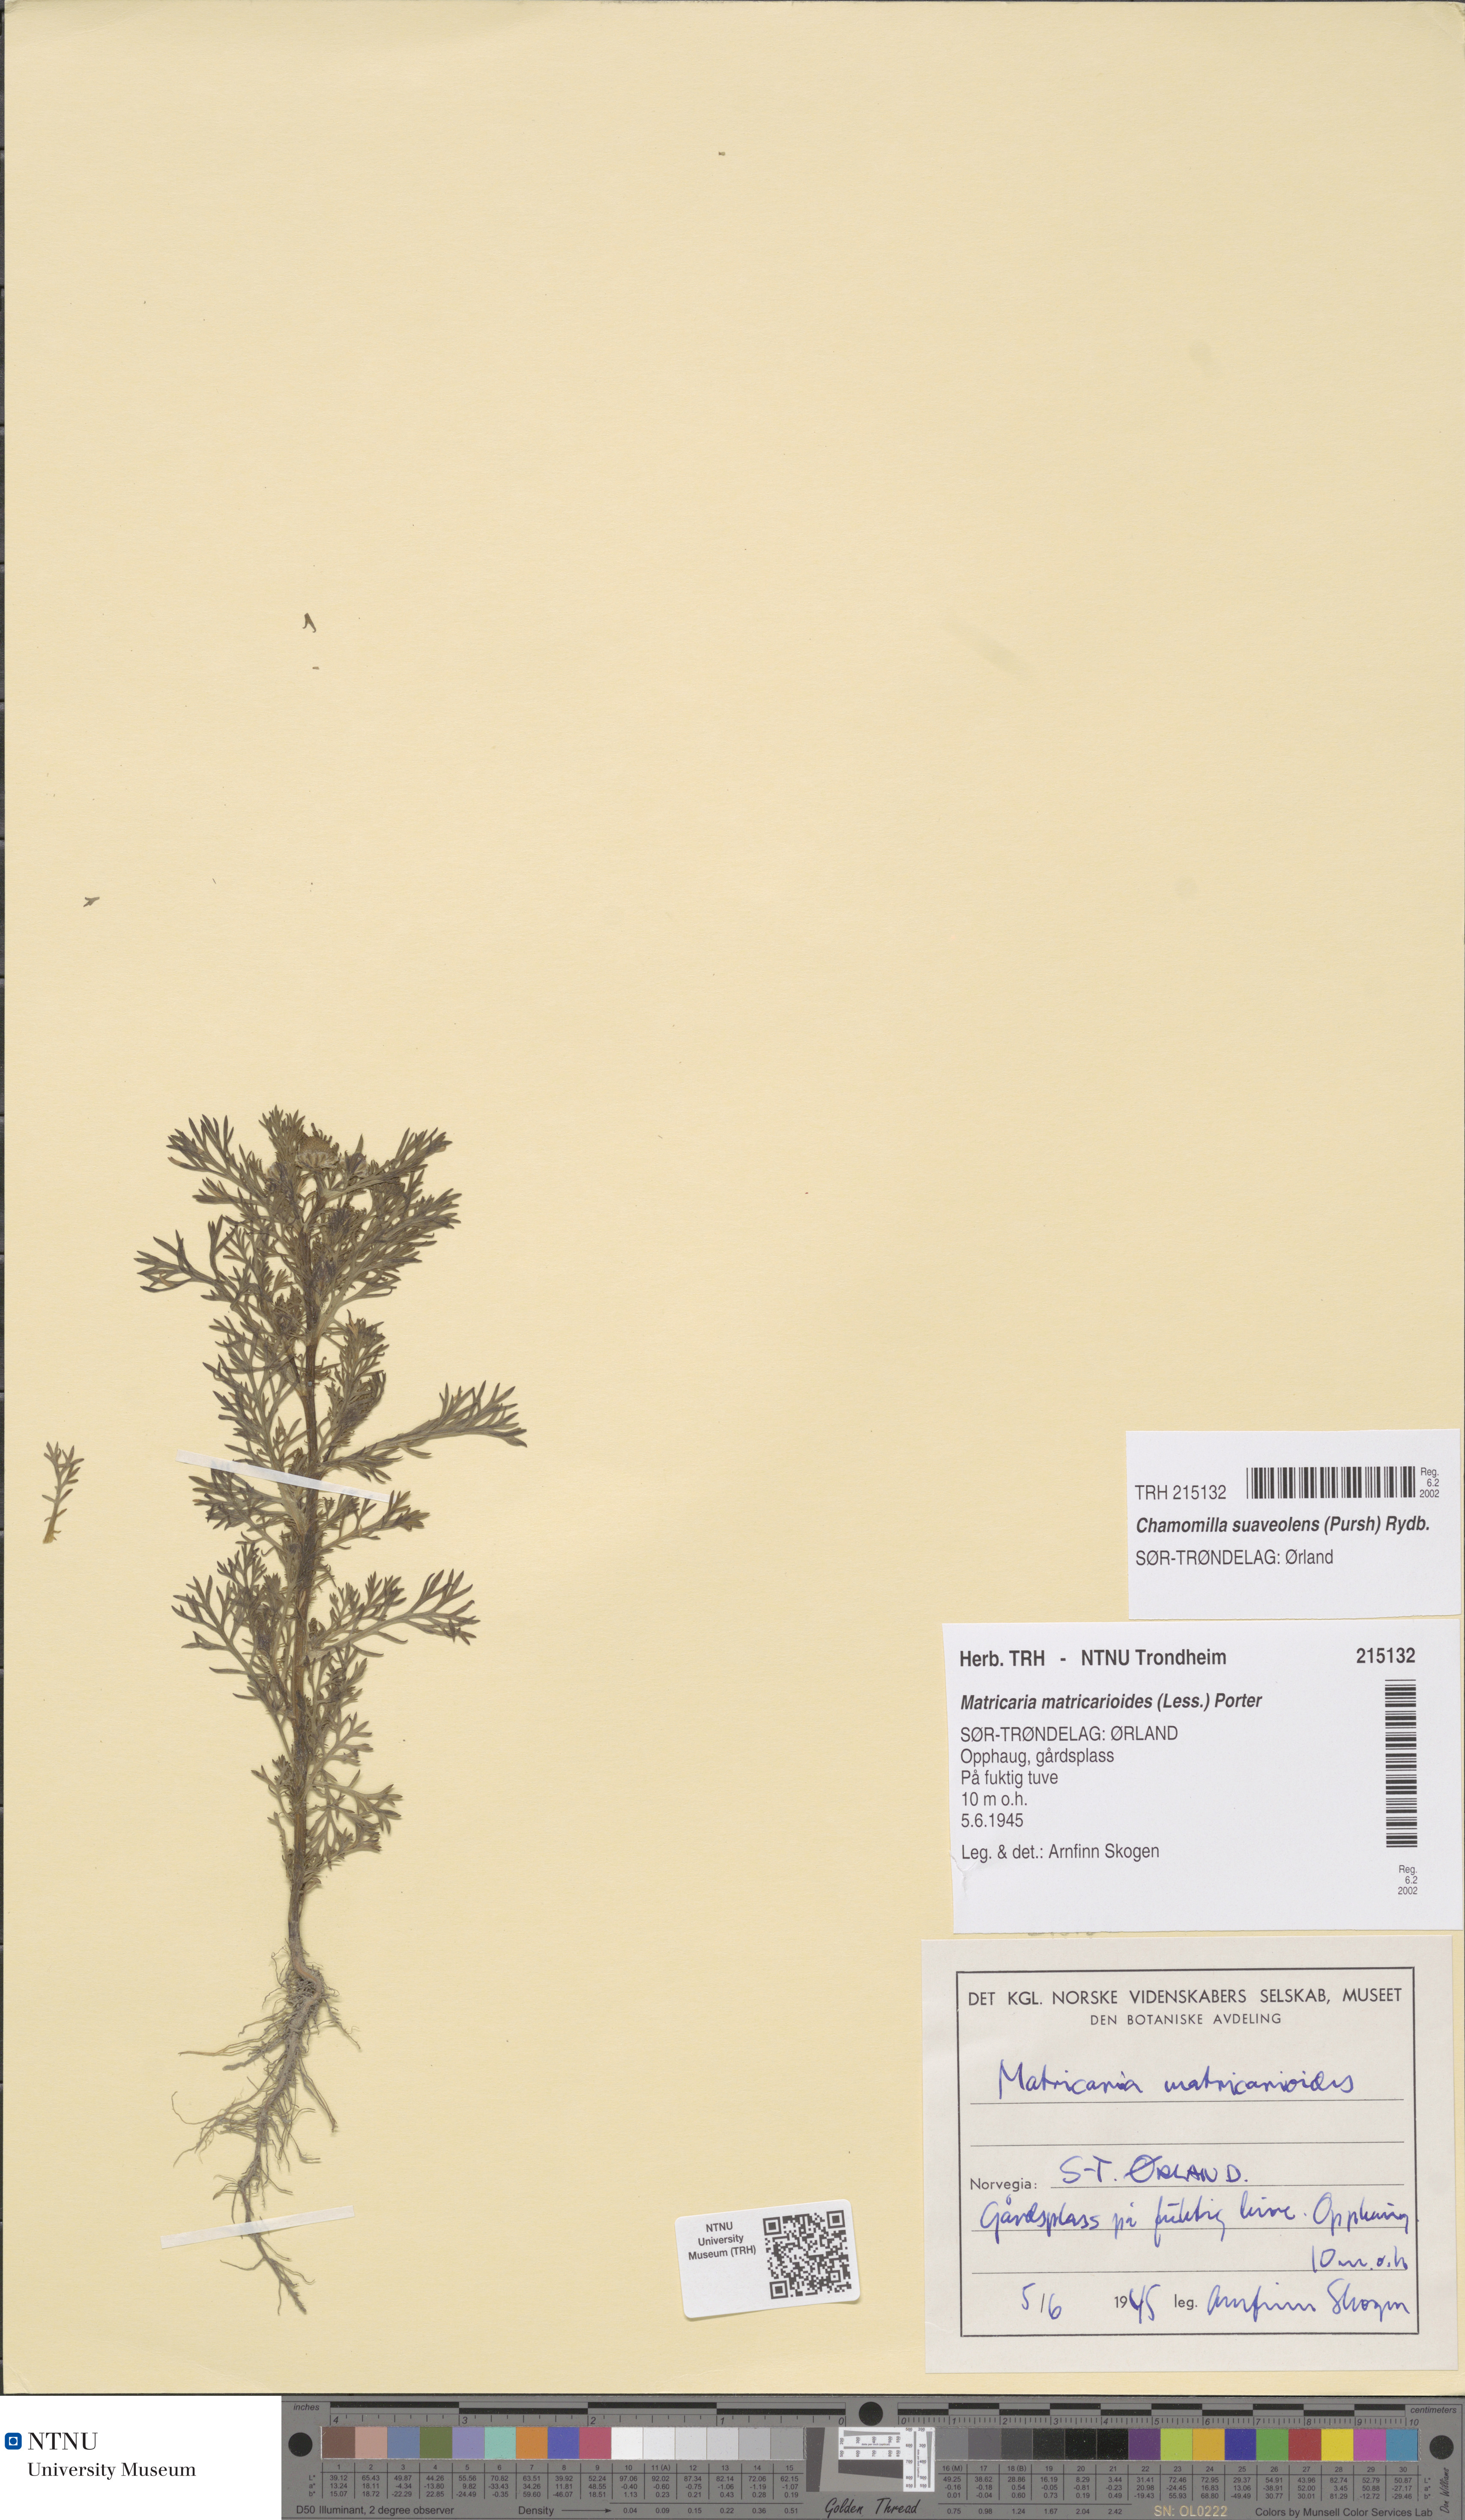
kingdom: Plantae
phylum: Tracheophyta
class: Magnoliopsida
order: Asterales
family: Asteraceae
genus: Matricaria
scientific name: Matricaria discoidea
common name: Disc mayweed
